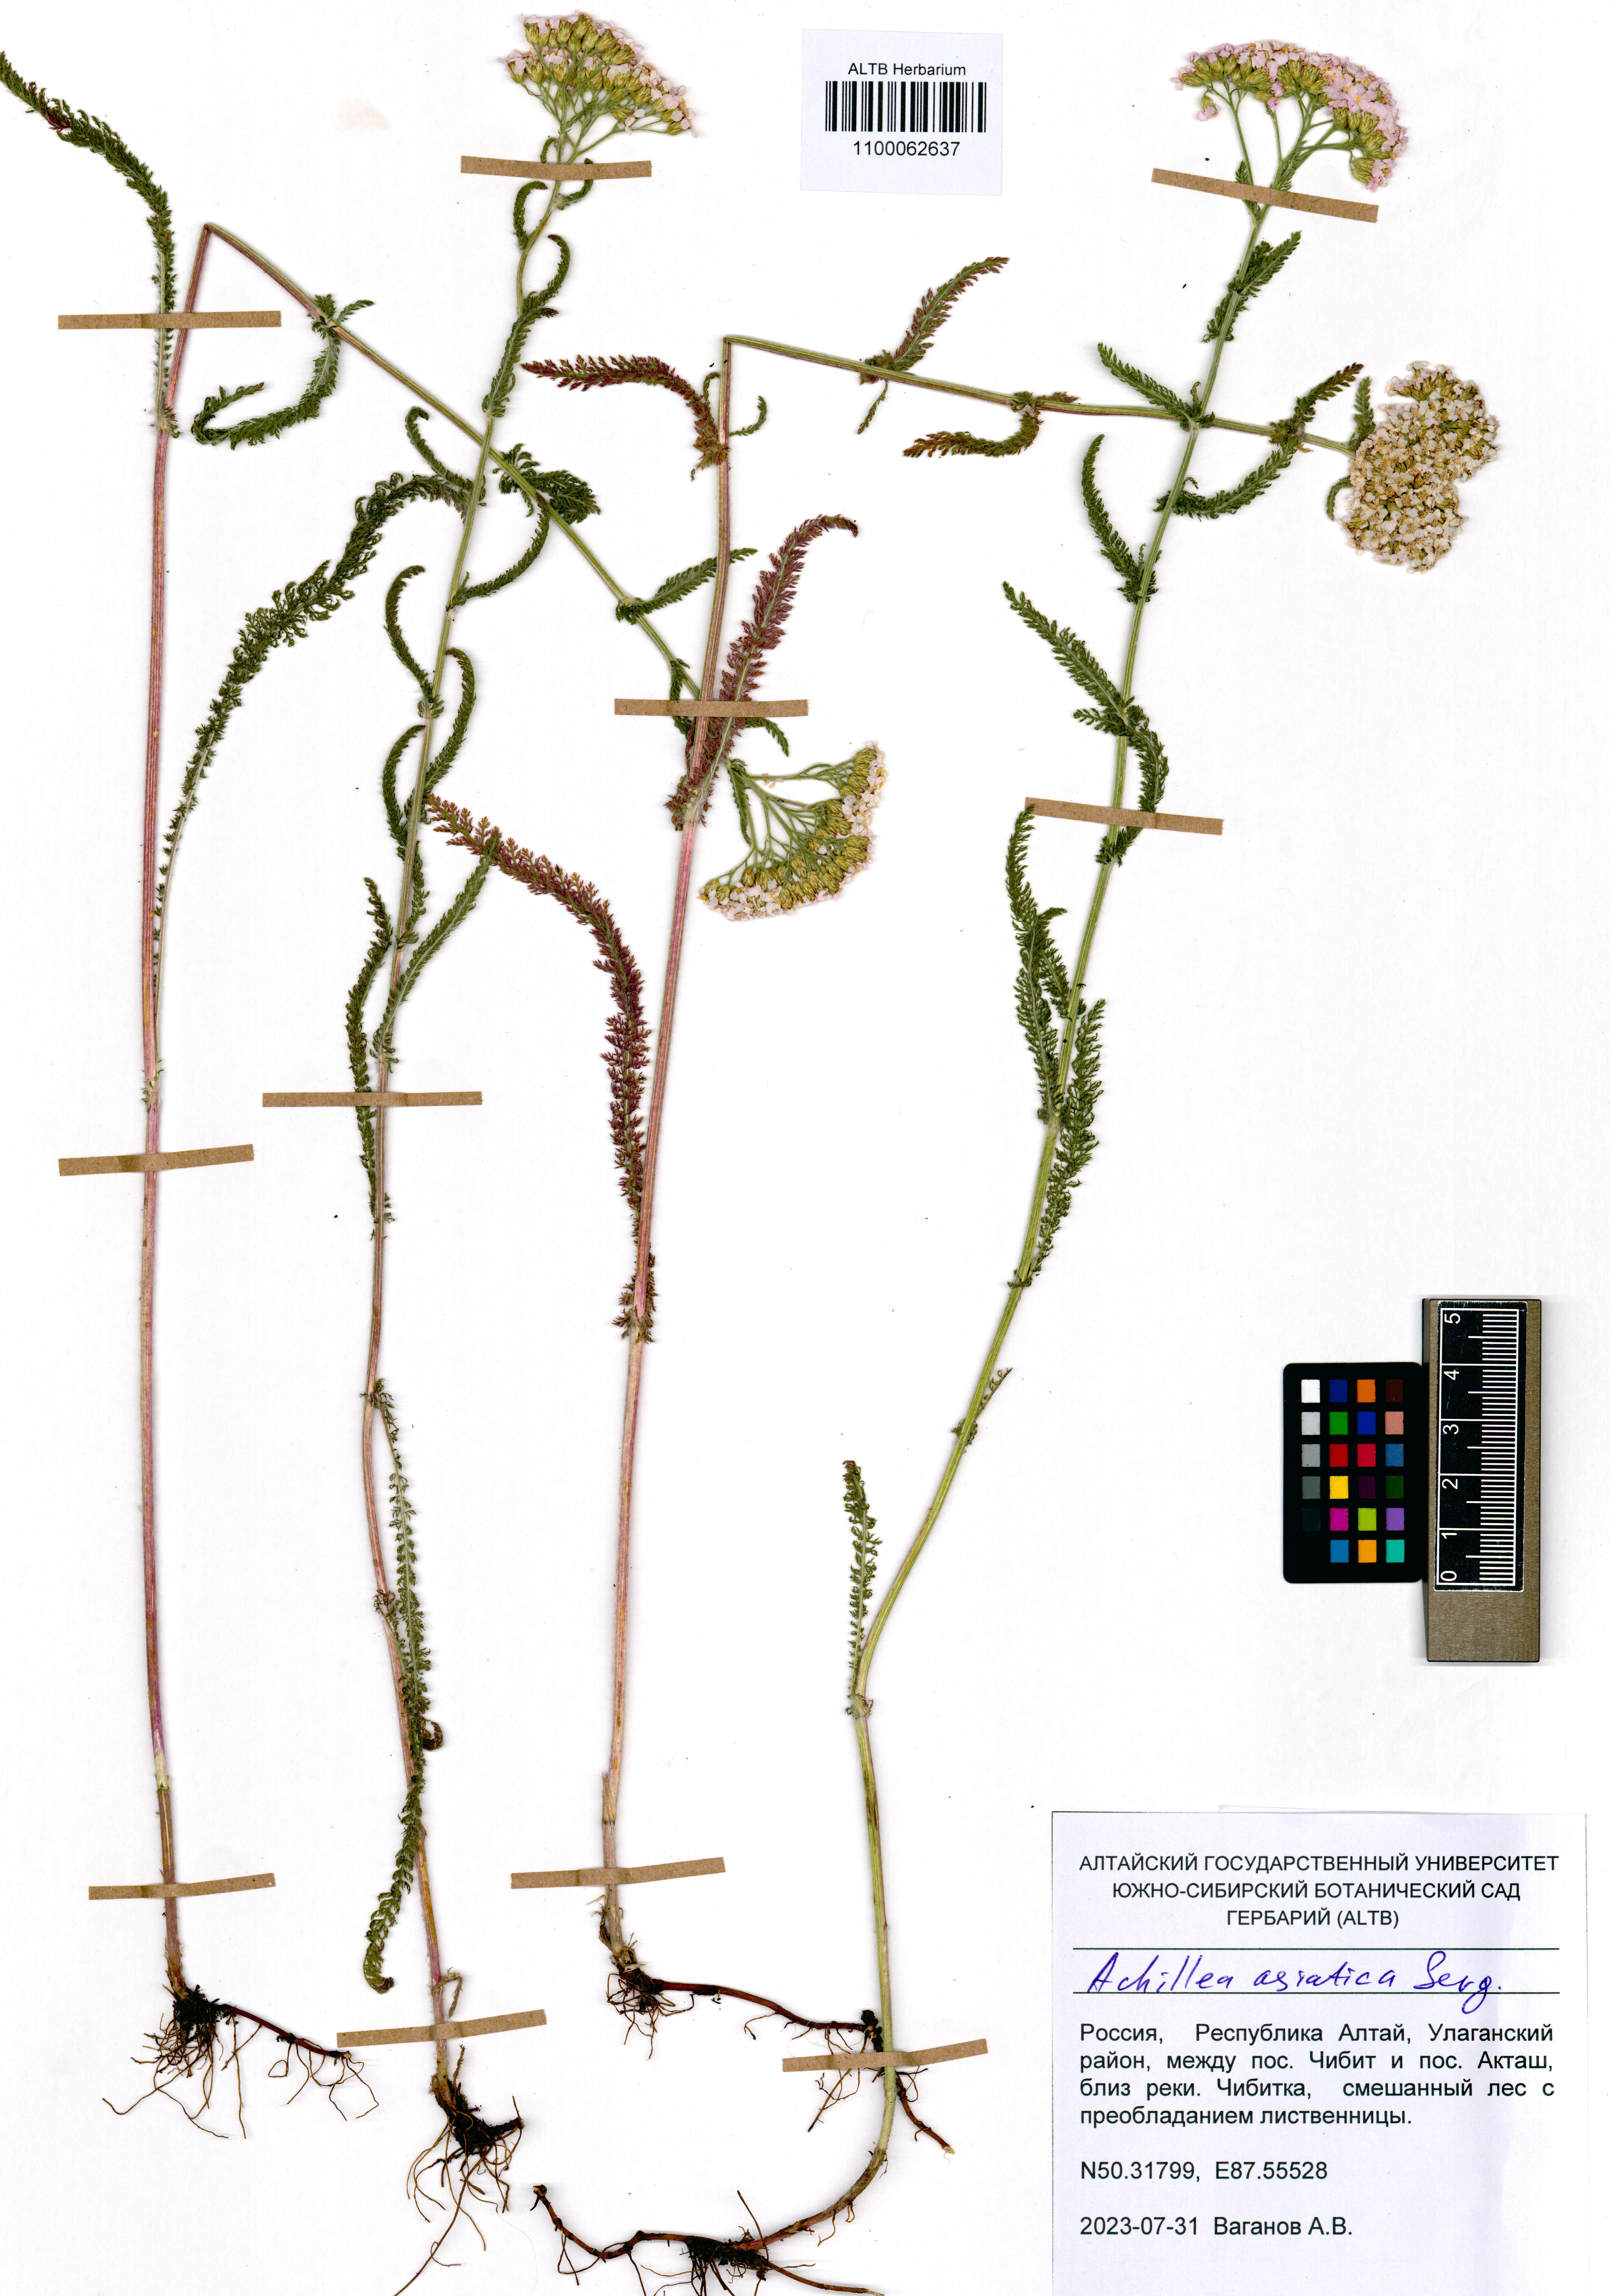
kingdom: Plantae
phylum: Tracheophyta
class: Magnoliopsida
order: Asterales
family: Asteraceae
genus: Achillea
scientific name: Achillea asiatica
